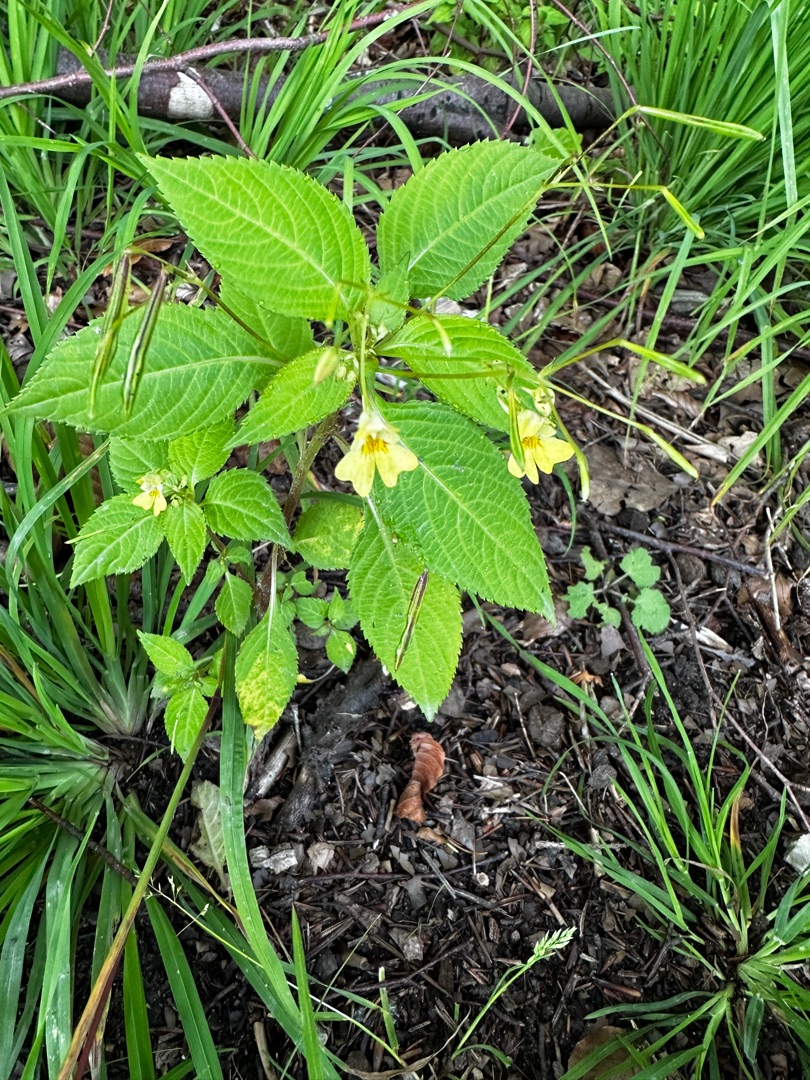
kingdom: Plantae
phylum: Tracheophyta
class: Magnoliopsida
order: Ericales
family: Balsaminaceae
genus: Impatiens
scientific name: Impatiens parviflora
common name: Småblomstret balsamin
